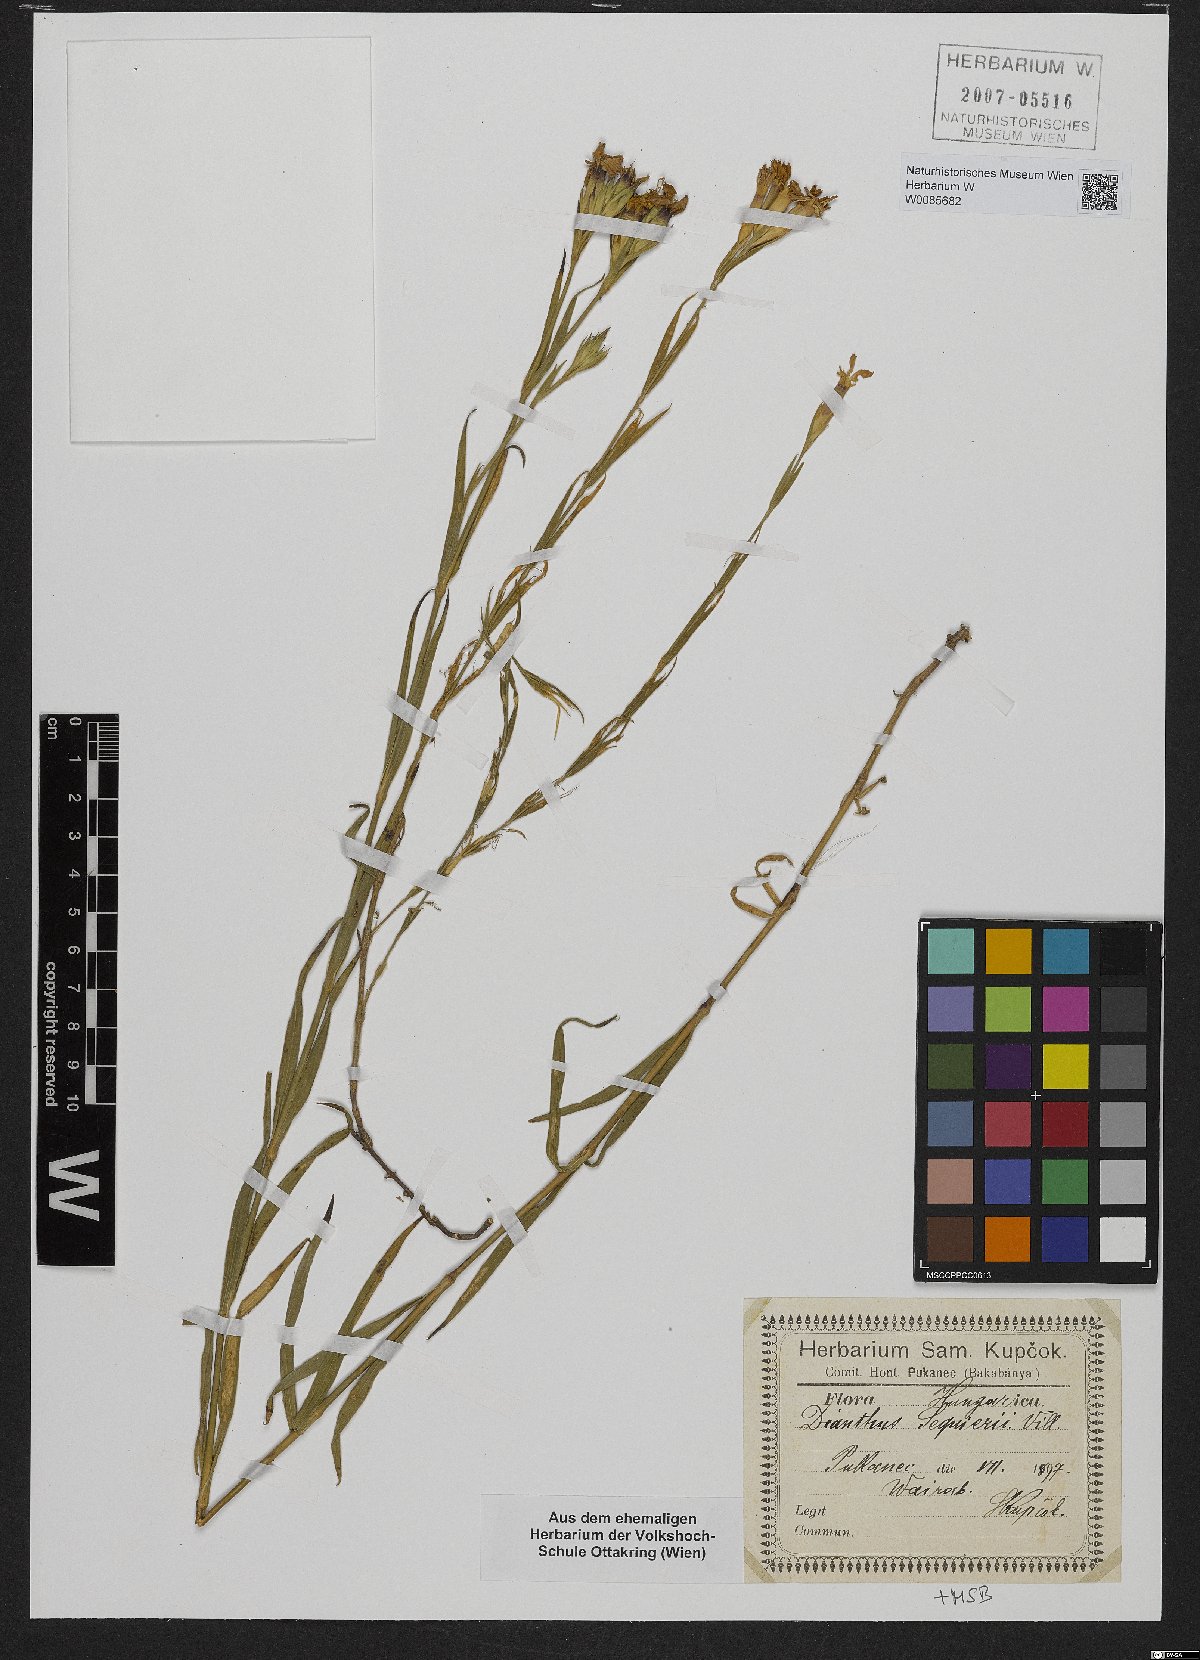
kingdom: Plantae
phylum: Tracheophyta
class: Magnoliopsida
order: Caryophyllales
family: Caryophyllaceae
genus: Dianthus
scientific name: Dianthus seguieri
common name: Ragged pink
